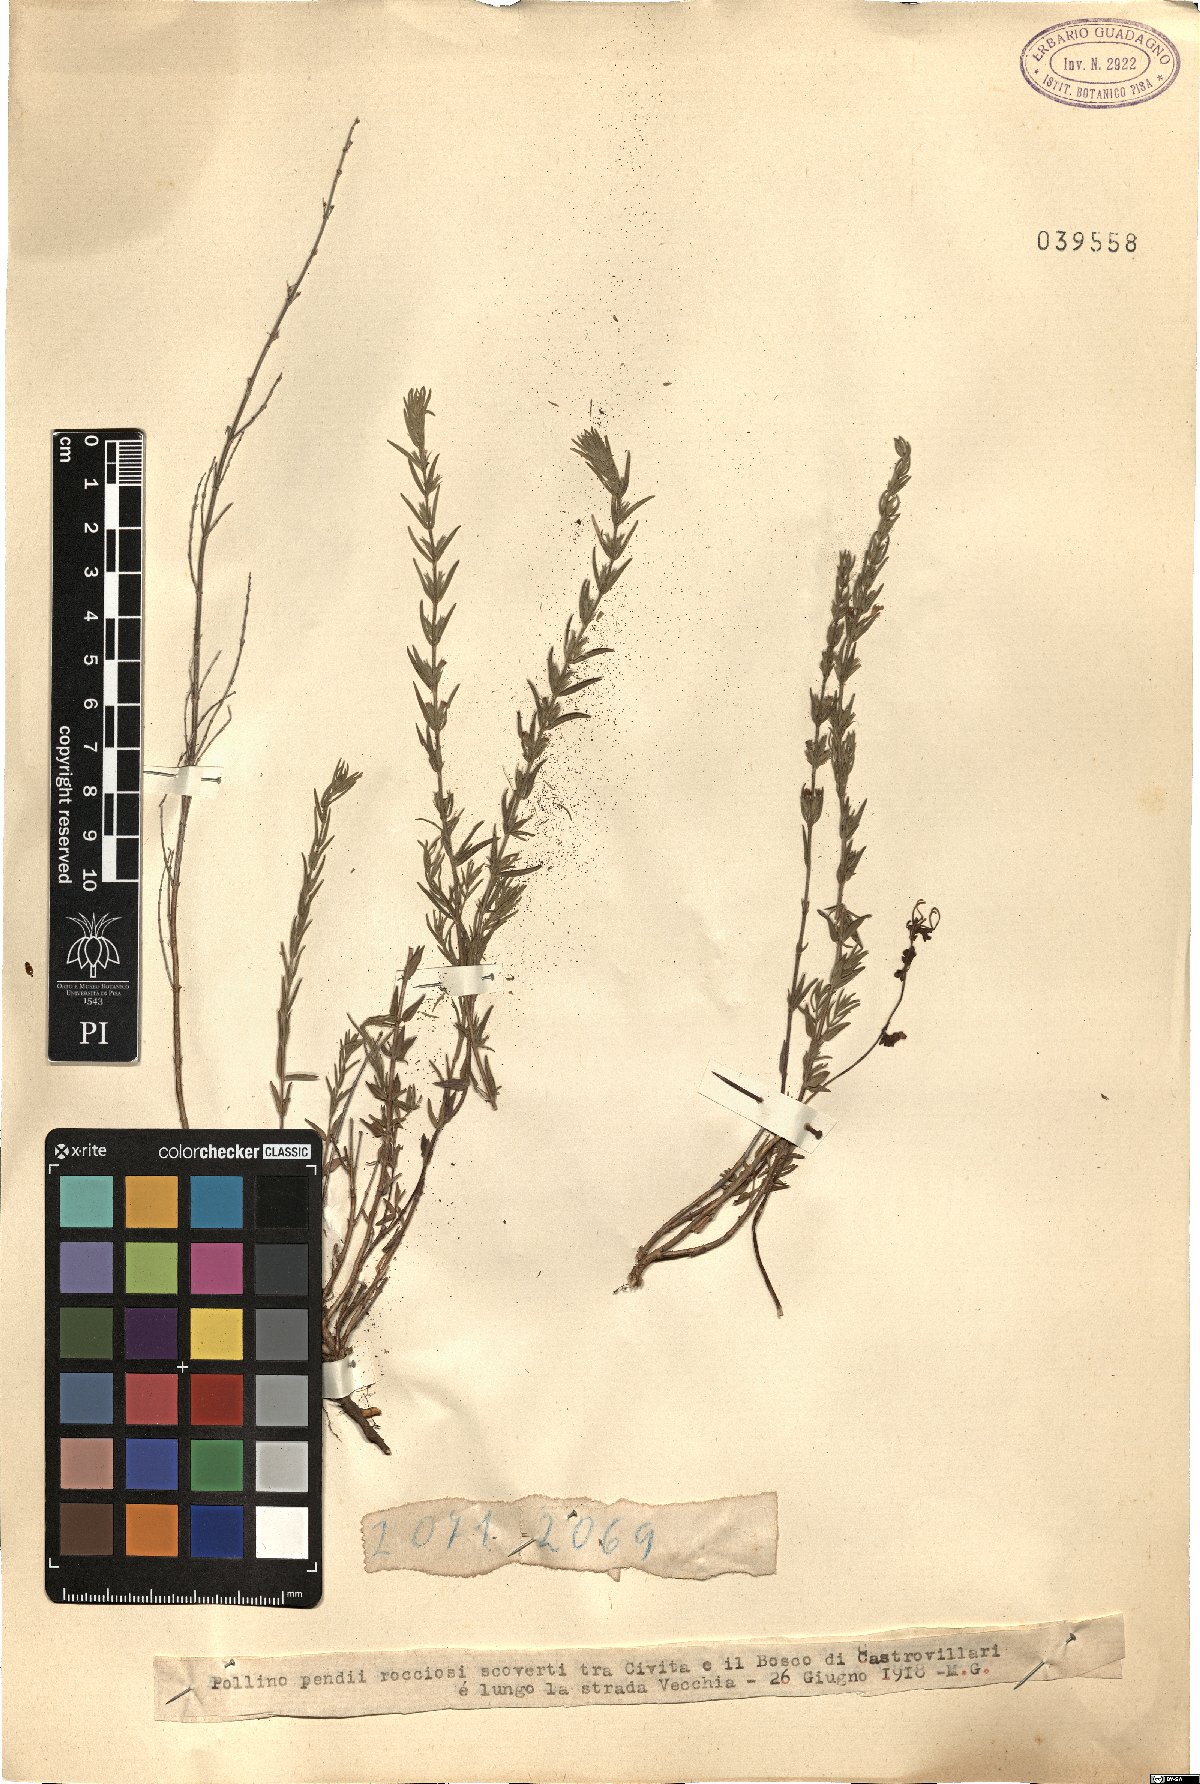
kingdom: Plantae
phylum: Tracheophyta
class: Magnoliopsida
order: Lamiales
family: Lamiaceae
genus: Micromeria
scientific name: Micromeria
